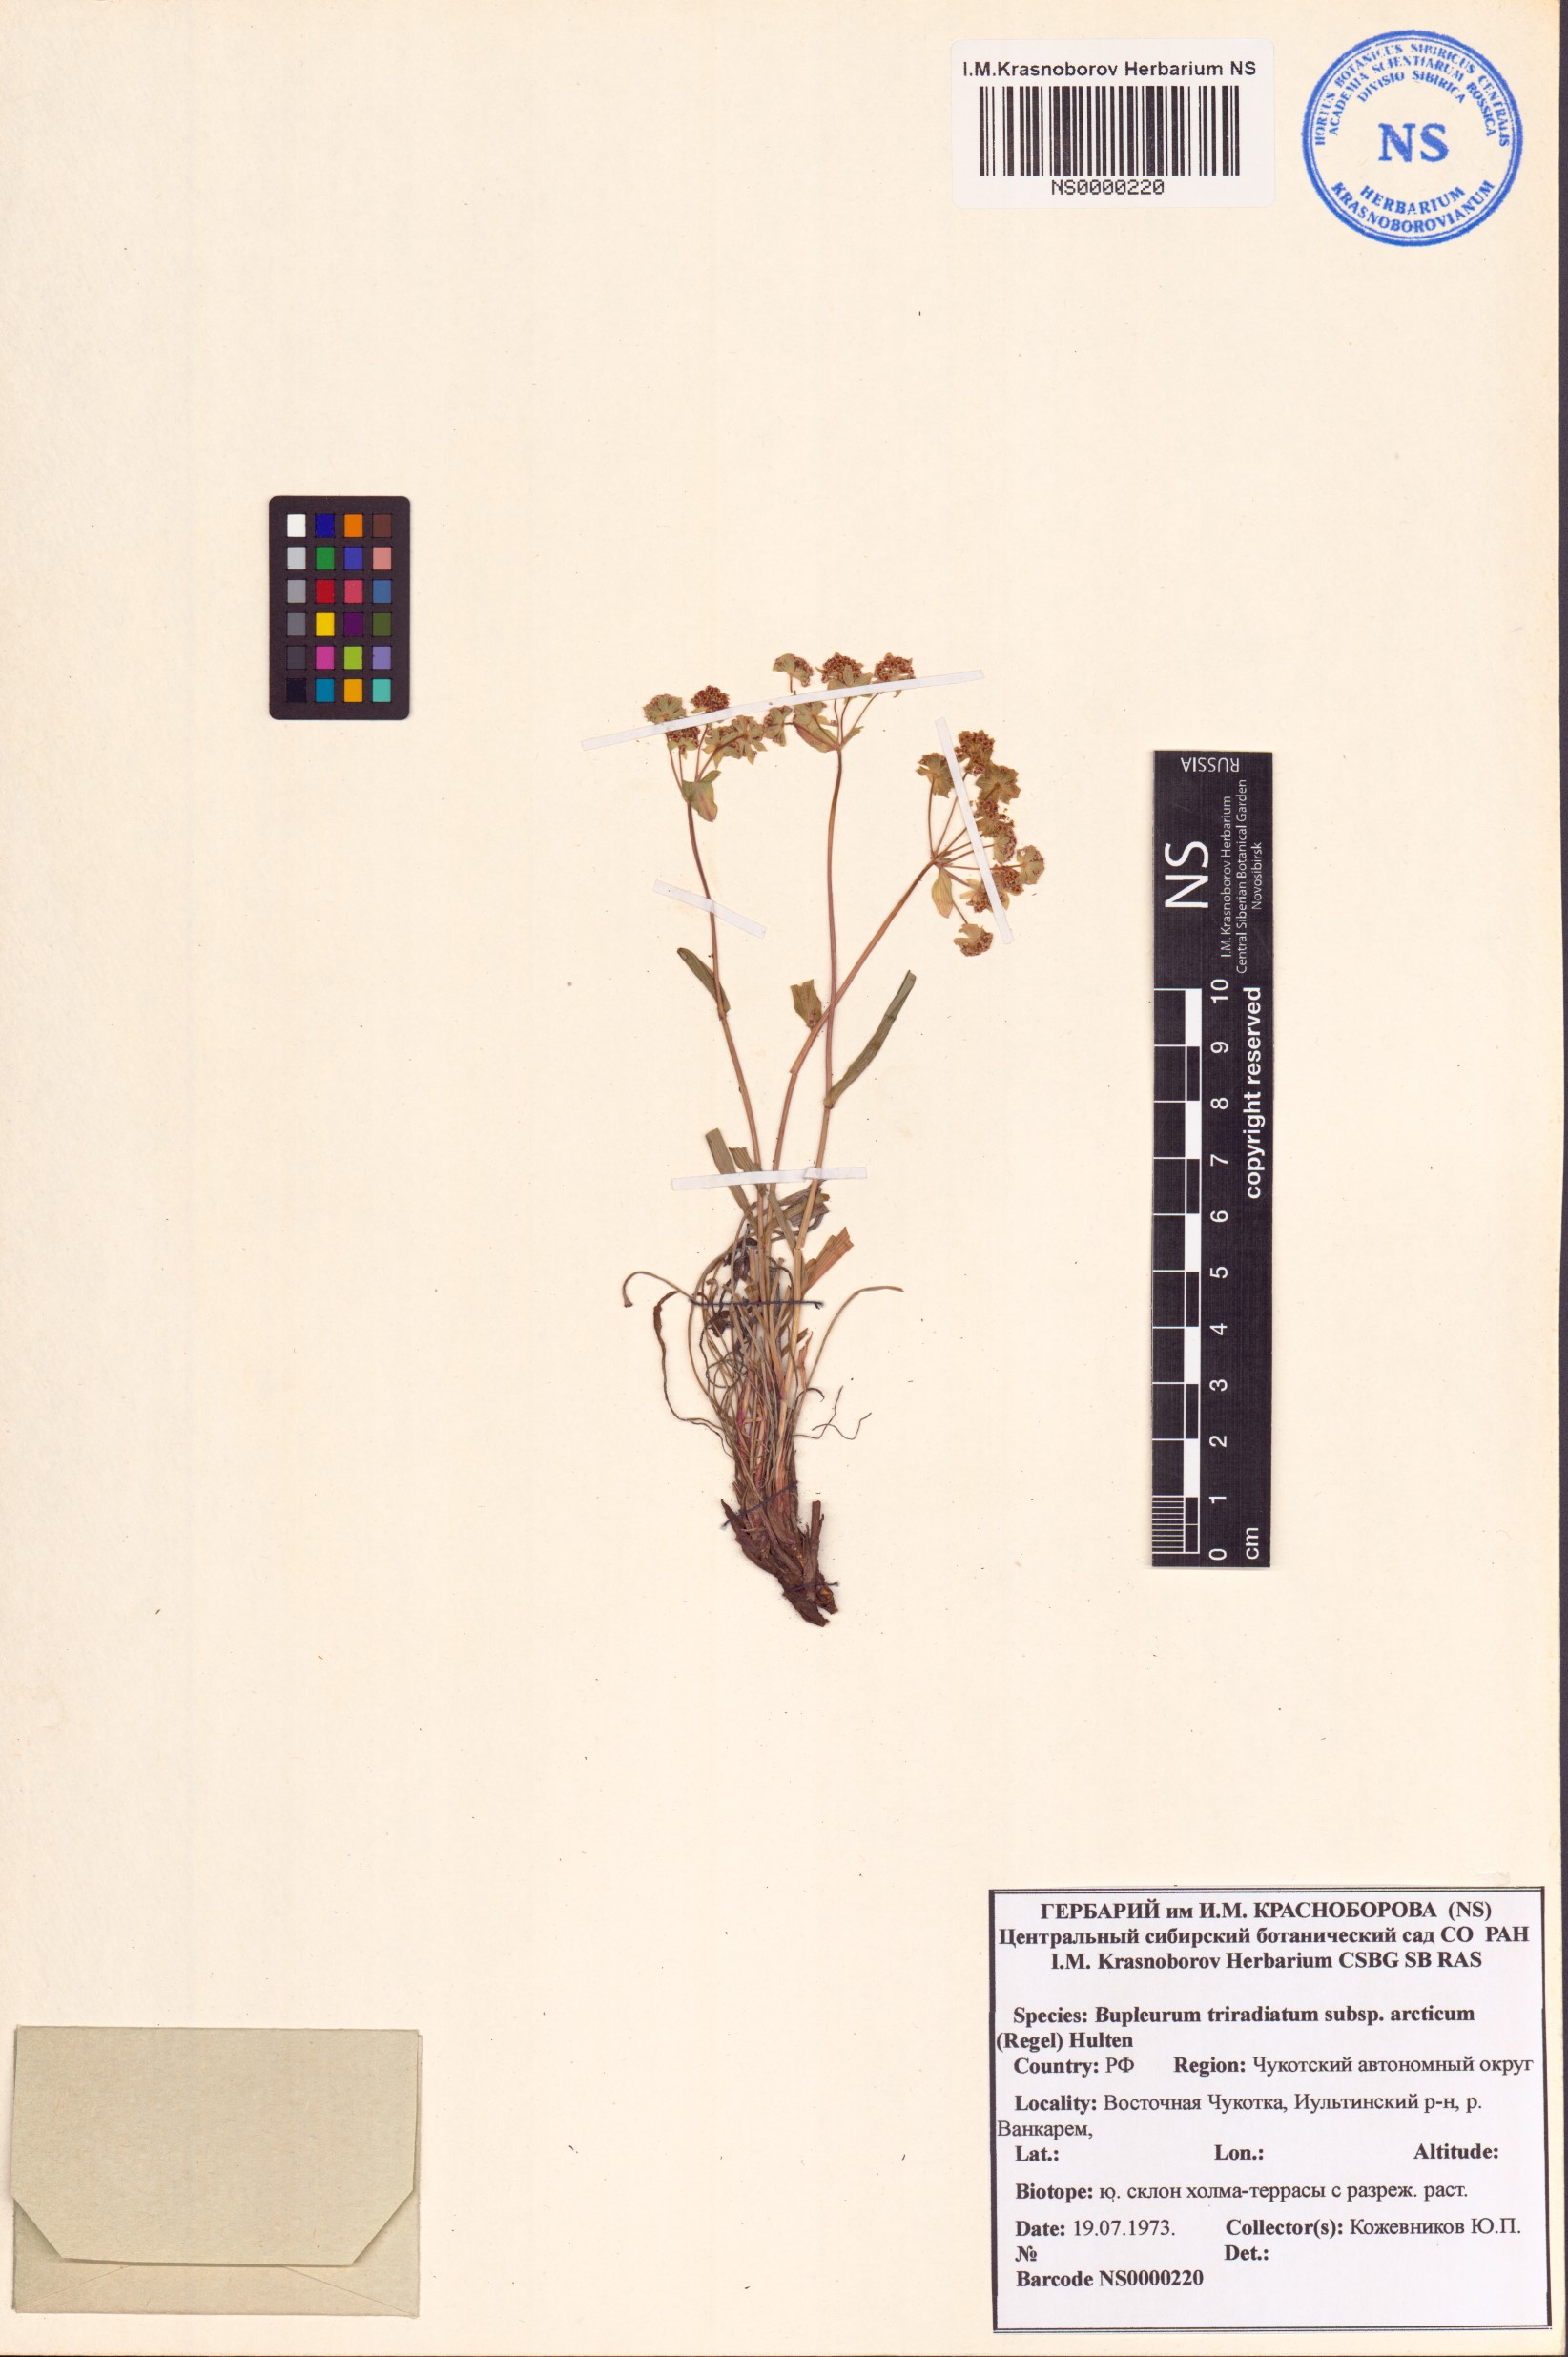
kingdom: Plantae
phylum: Tracheophyta
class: Magnoliopsida
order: Apiales
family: Apiaceae
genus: Bupleurum
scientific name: Bupleurum americanum
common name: American thoroughwax
